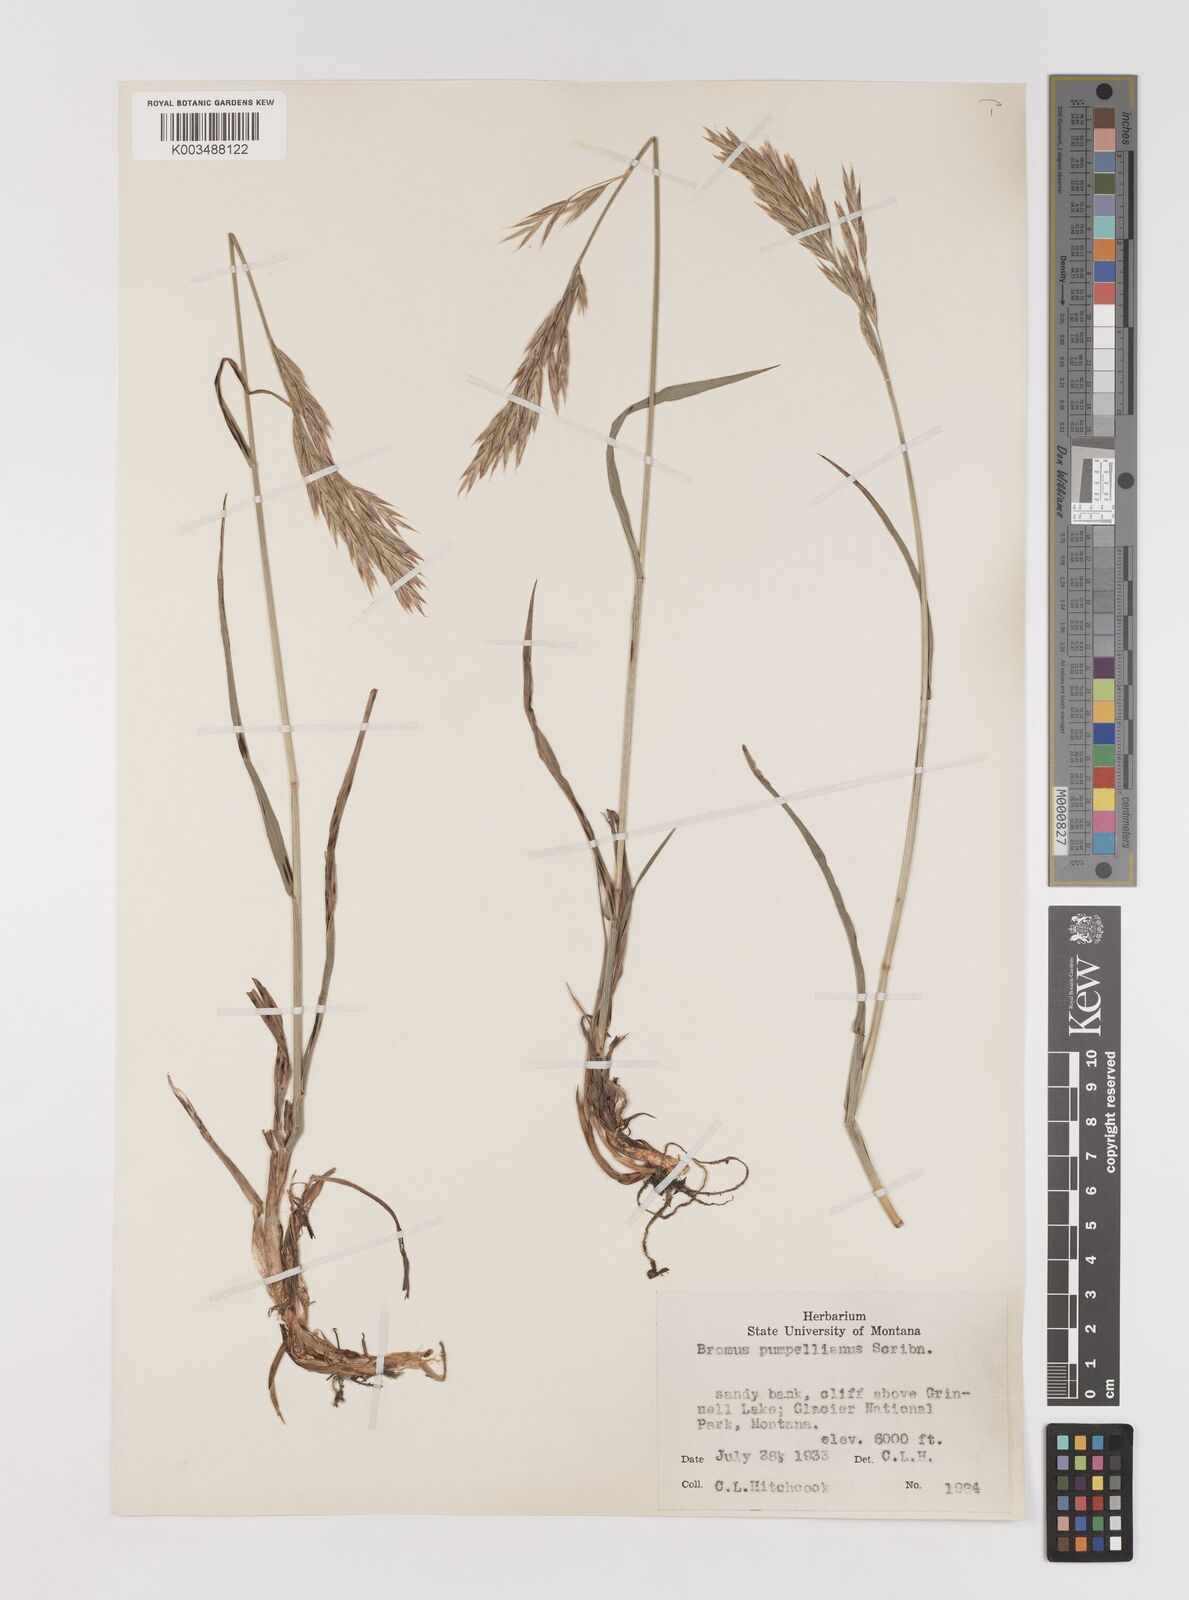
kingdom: Plantae
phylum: Tracheophyta
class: Liliopsida
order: Poales
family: Poaceae
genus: Bromus
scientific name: Bromus pumpellianus
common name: Pumpelly's brome
